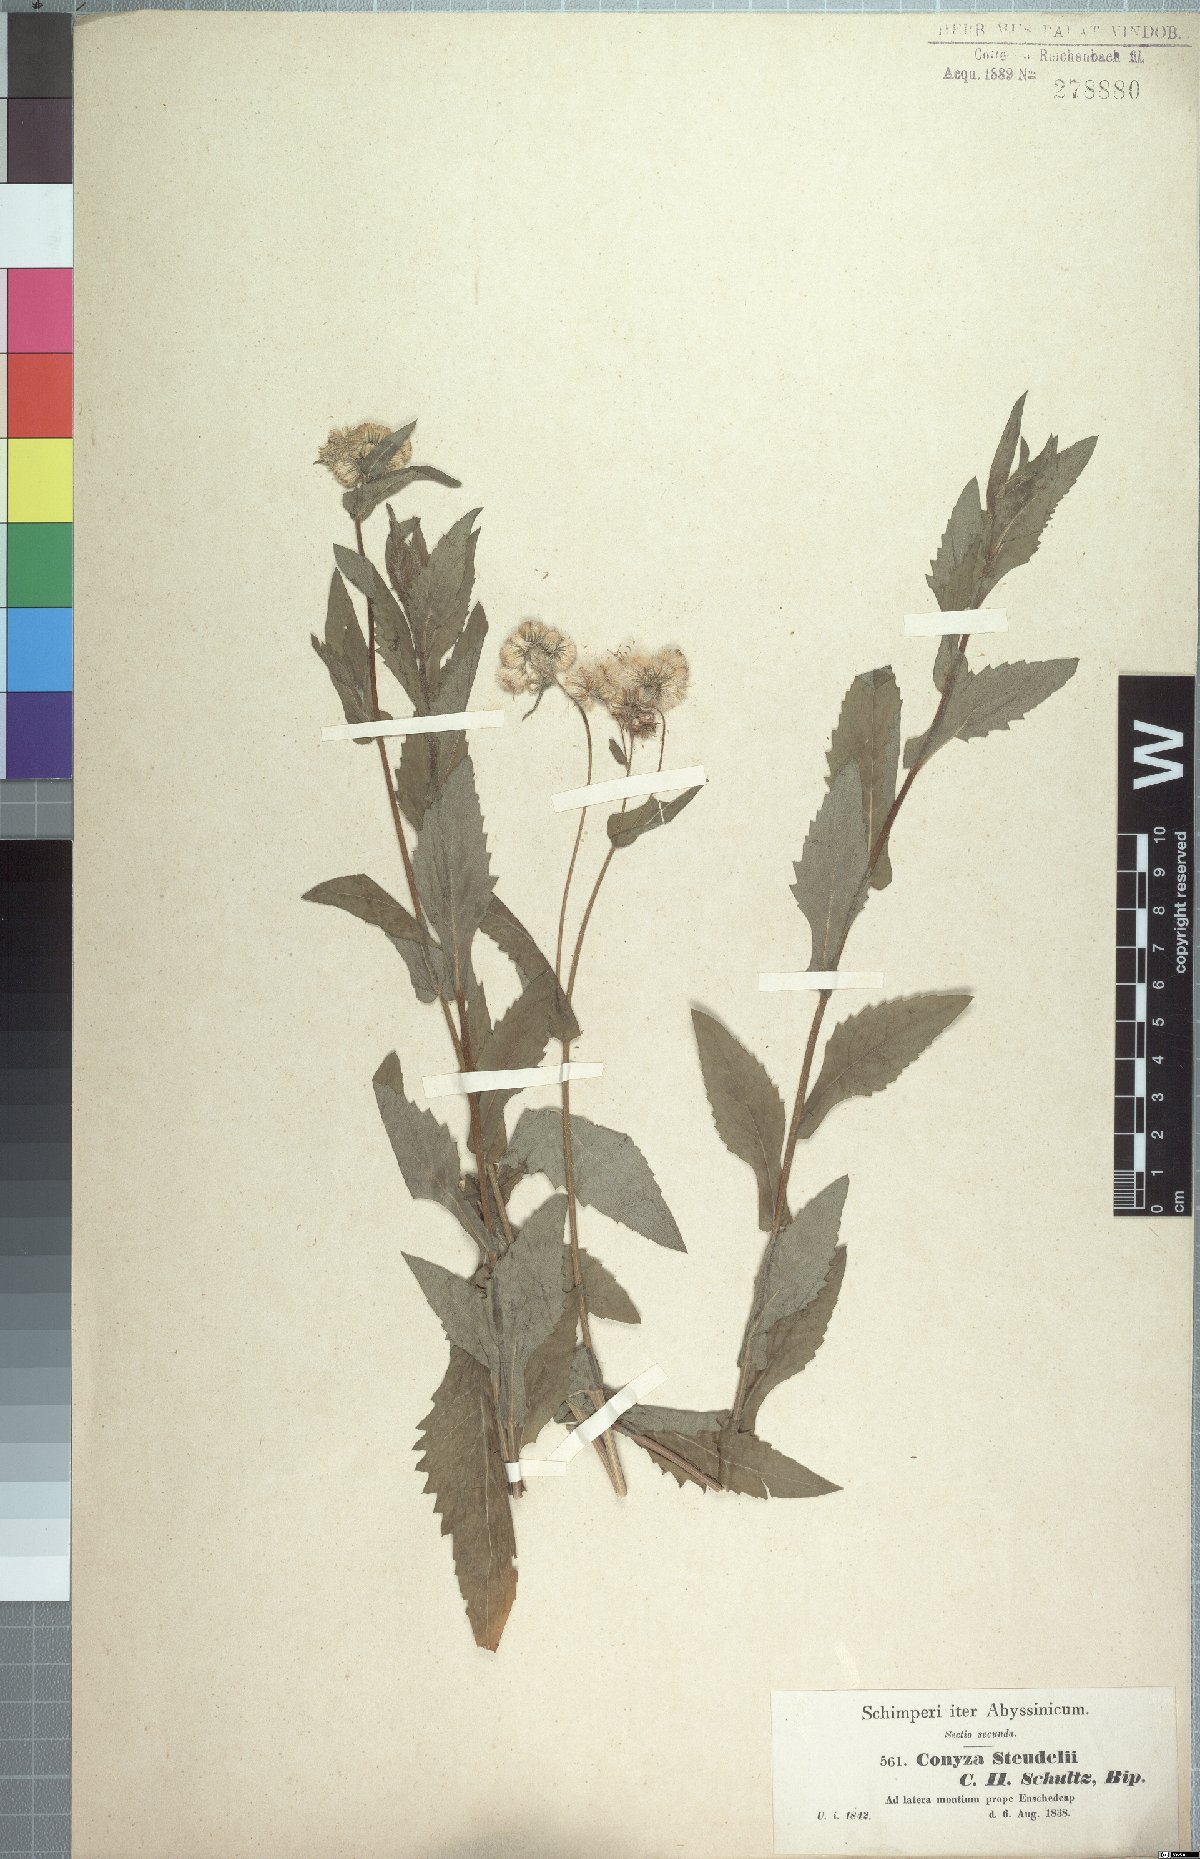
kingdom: Plantae
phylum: Tracheophyta
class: Magnoliopsida
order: Asterales
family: Asteraceae
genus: Conyza
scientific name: Conyza steudelii
